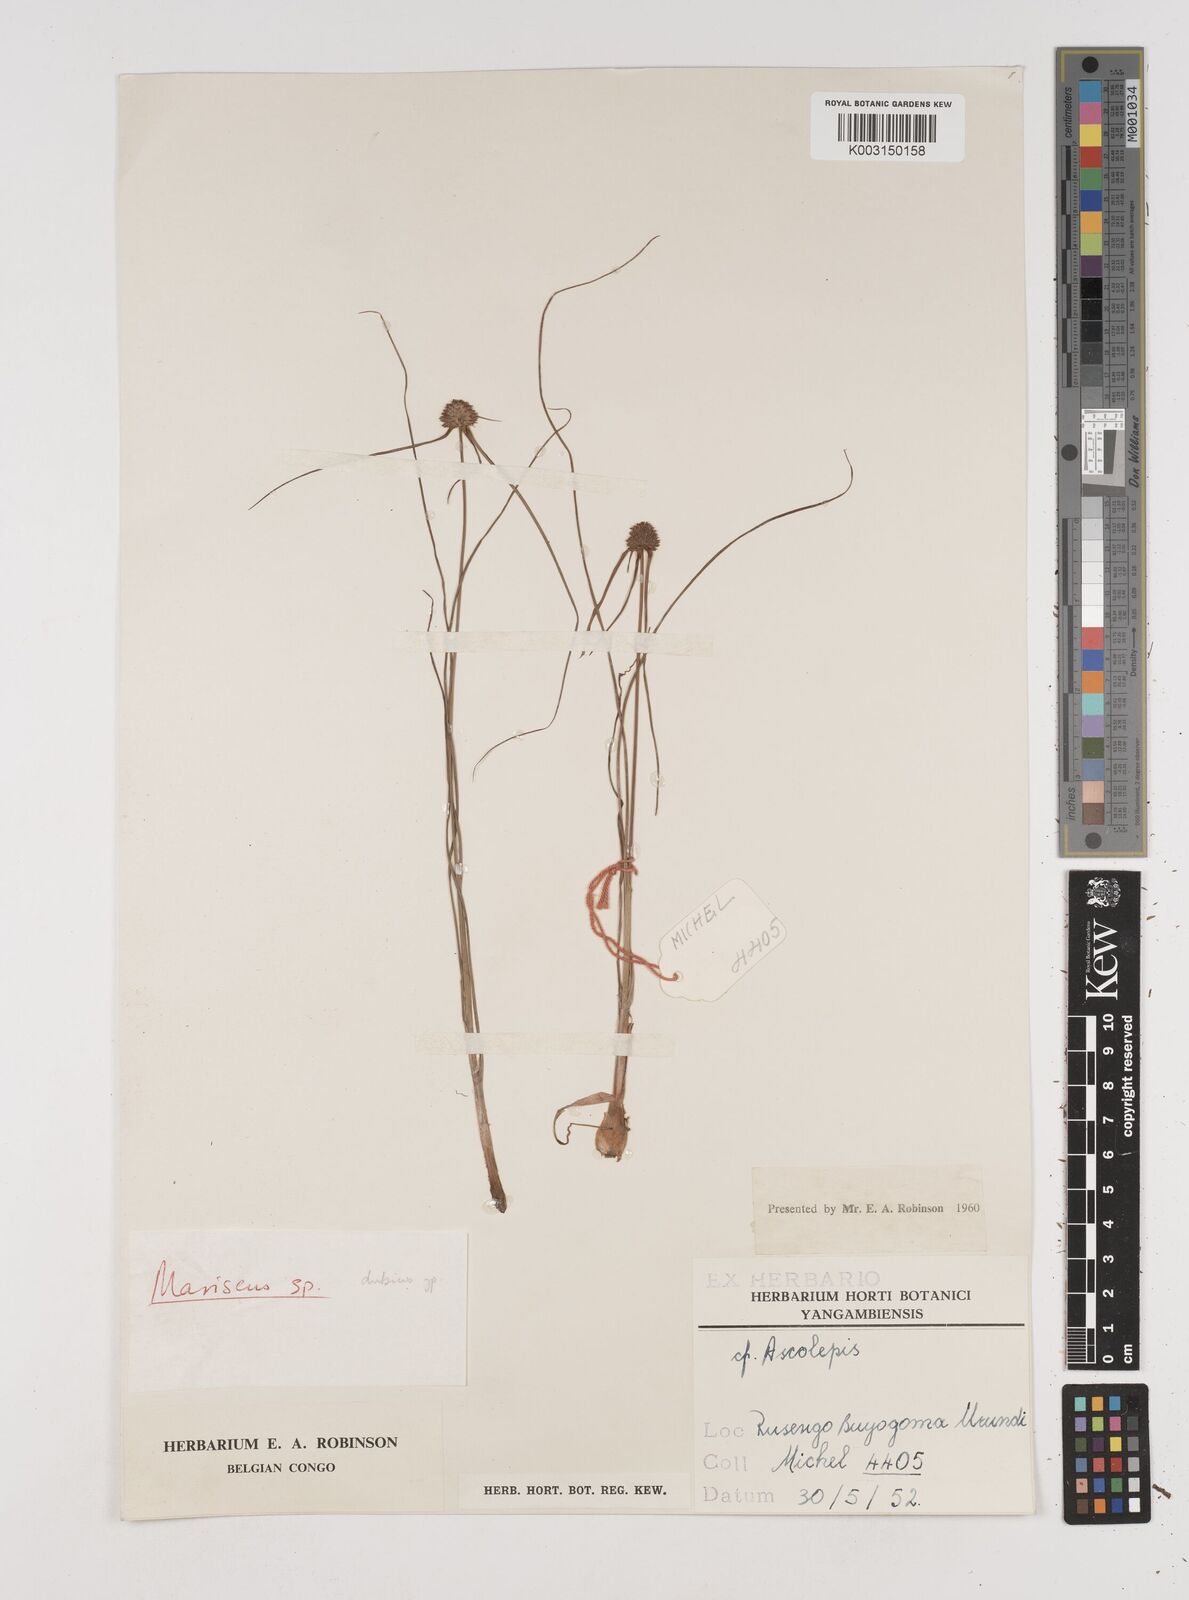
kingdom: Plantae
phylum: Tracheophyta
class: Liliopsida
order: Poales
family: Cyperaceae
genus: Cyperus
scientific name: Cyperus dubius
